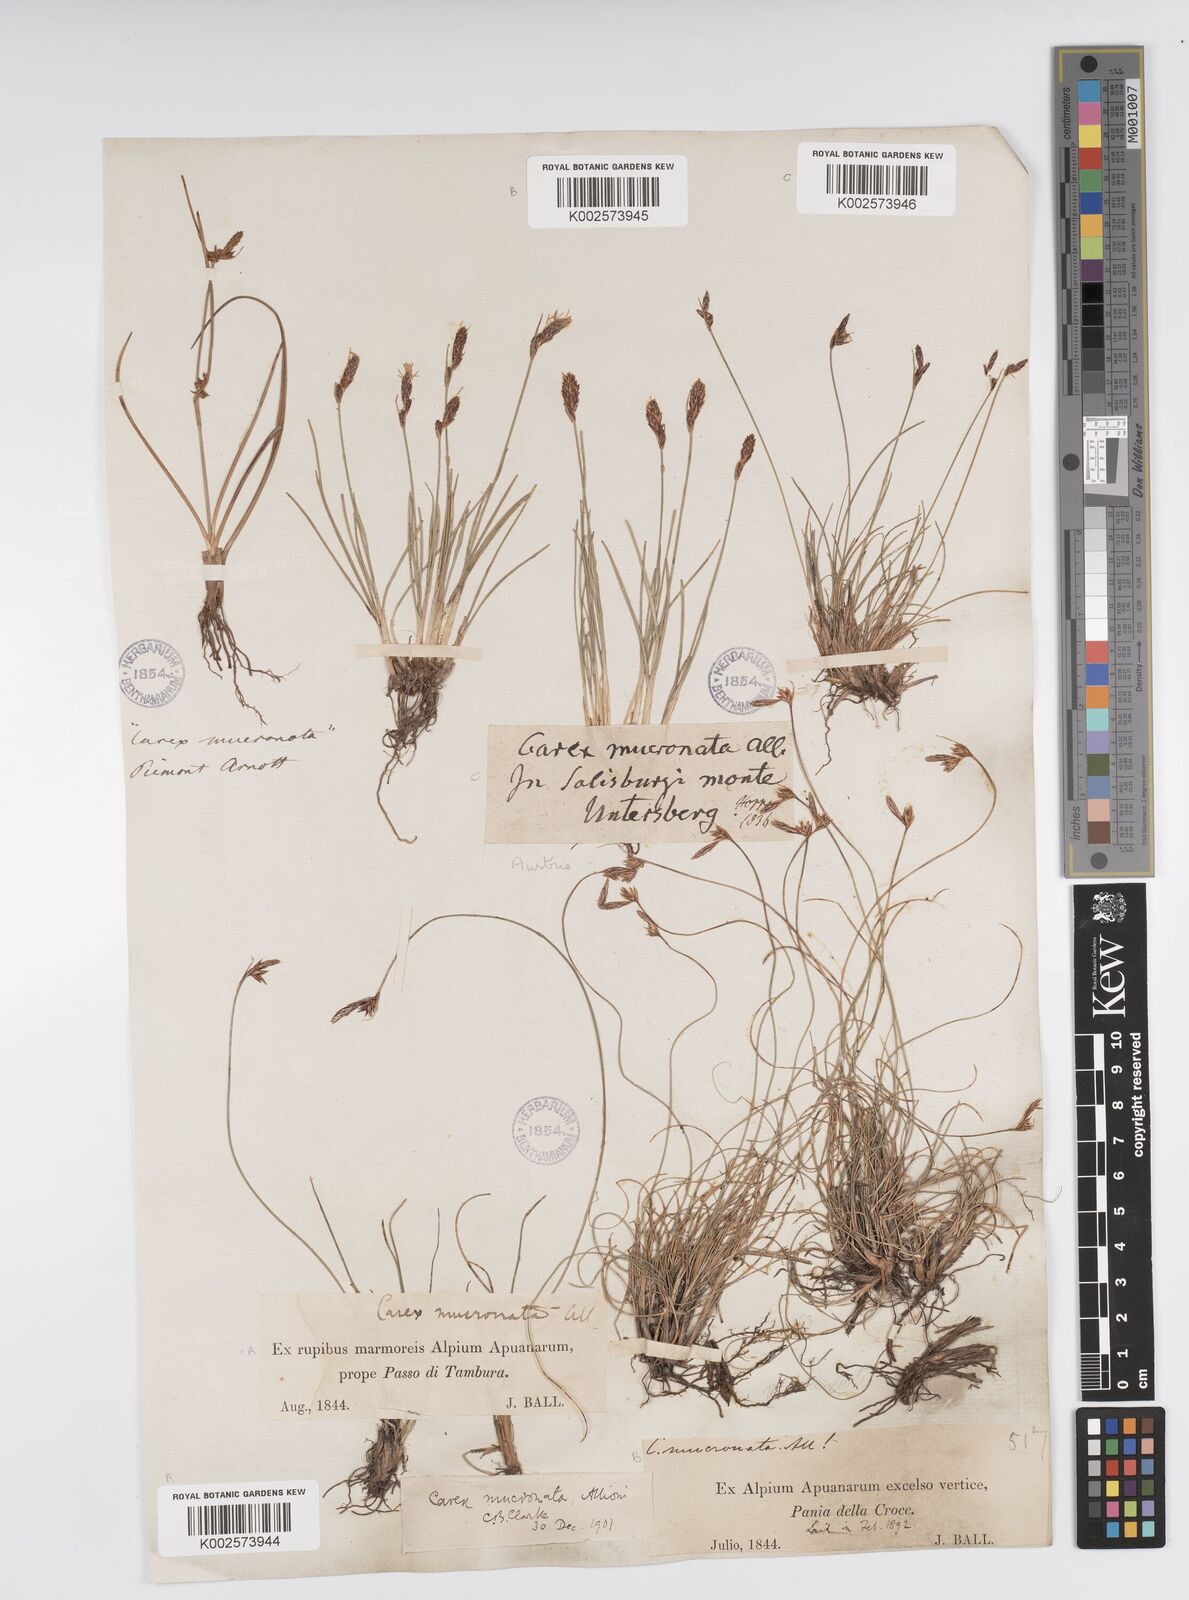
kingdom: Plantae
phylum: Tracheophyta
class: Liliopsida
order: Poales
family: Cyperaceae
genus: Carex
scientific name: Carex mucronata
